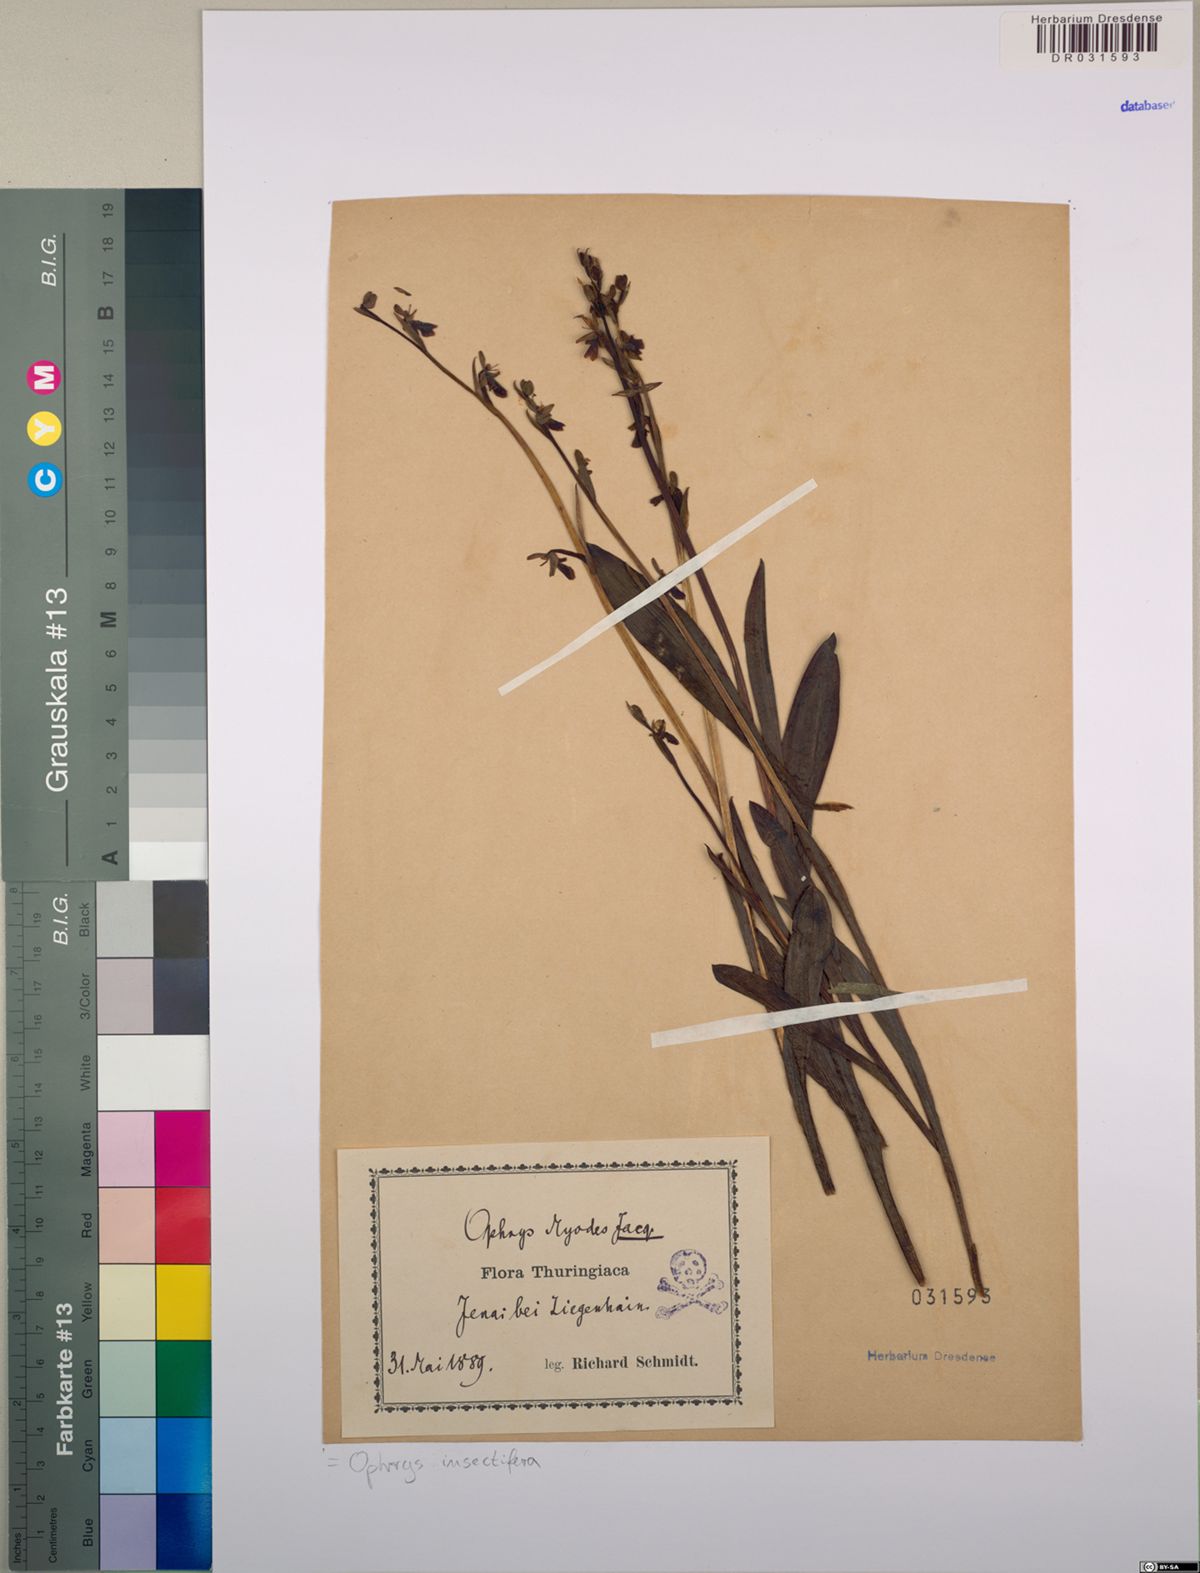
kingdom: Plantae
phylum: Tracheophyta
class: Liliopsida
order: Asparagales
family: Orchidaceae
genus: Ophrys
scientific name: Ophrys insectifera
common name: Fly orchid
